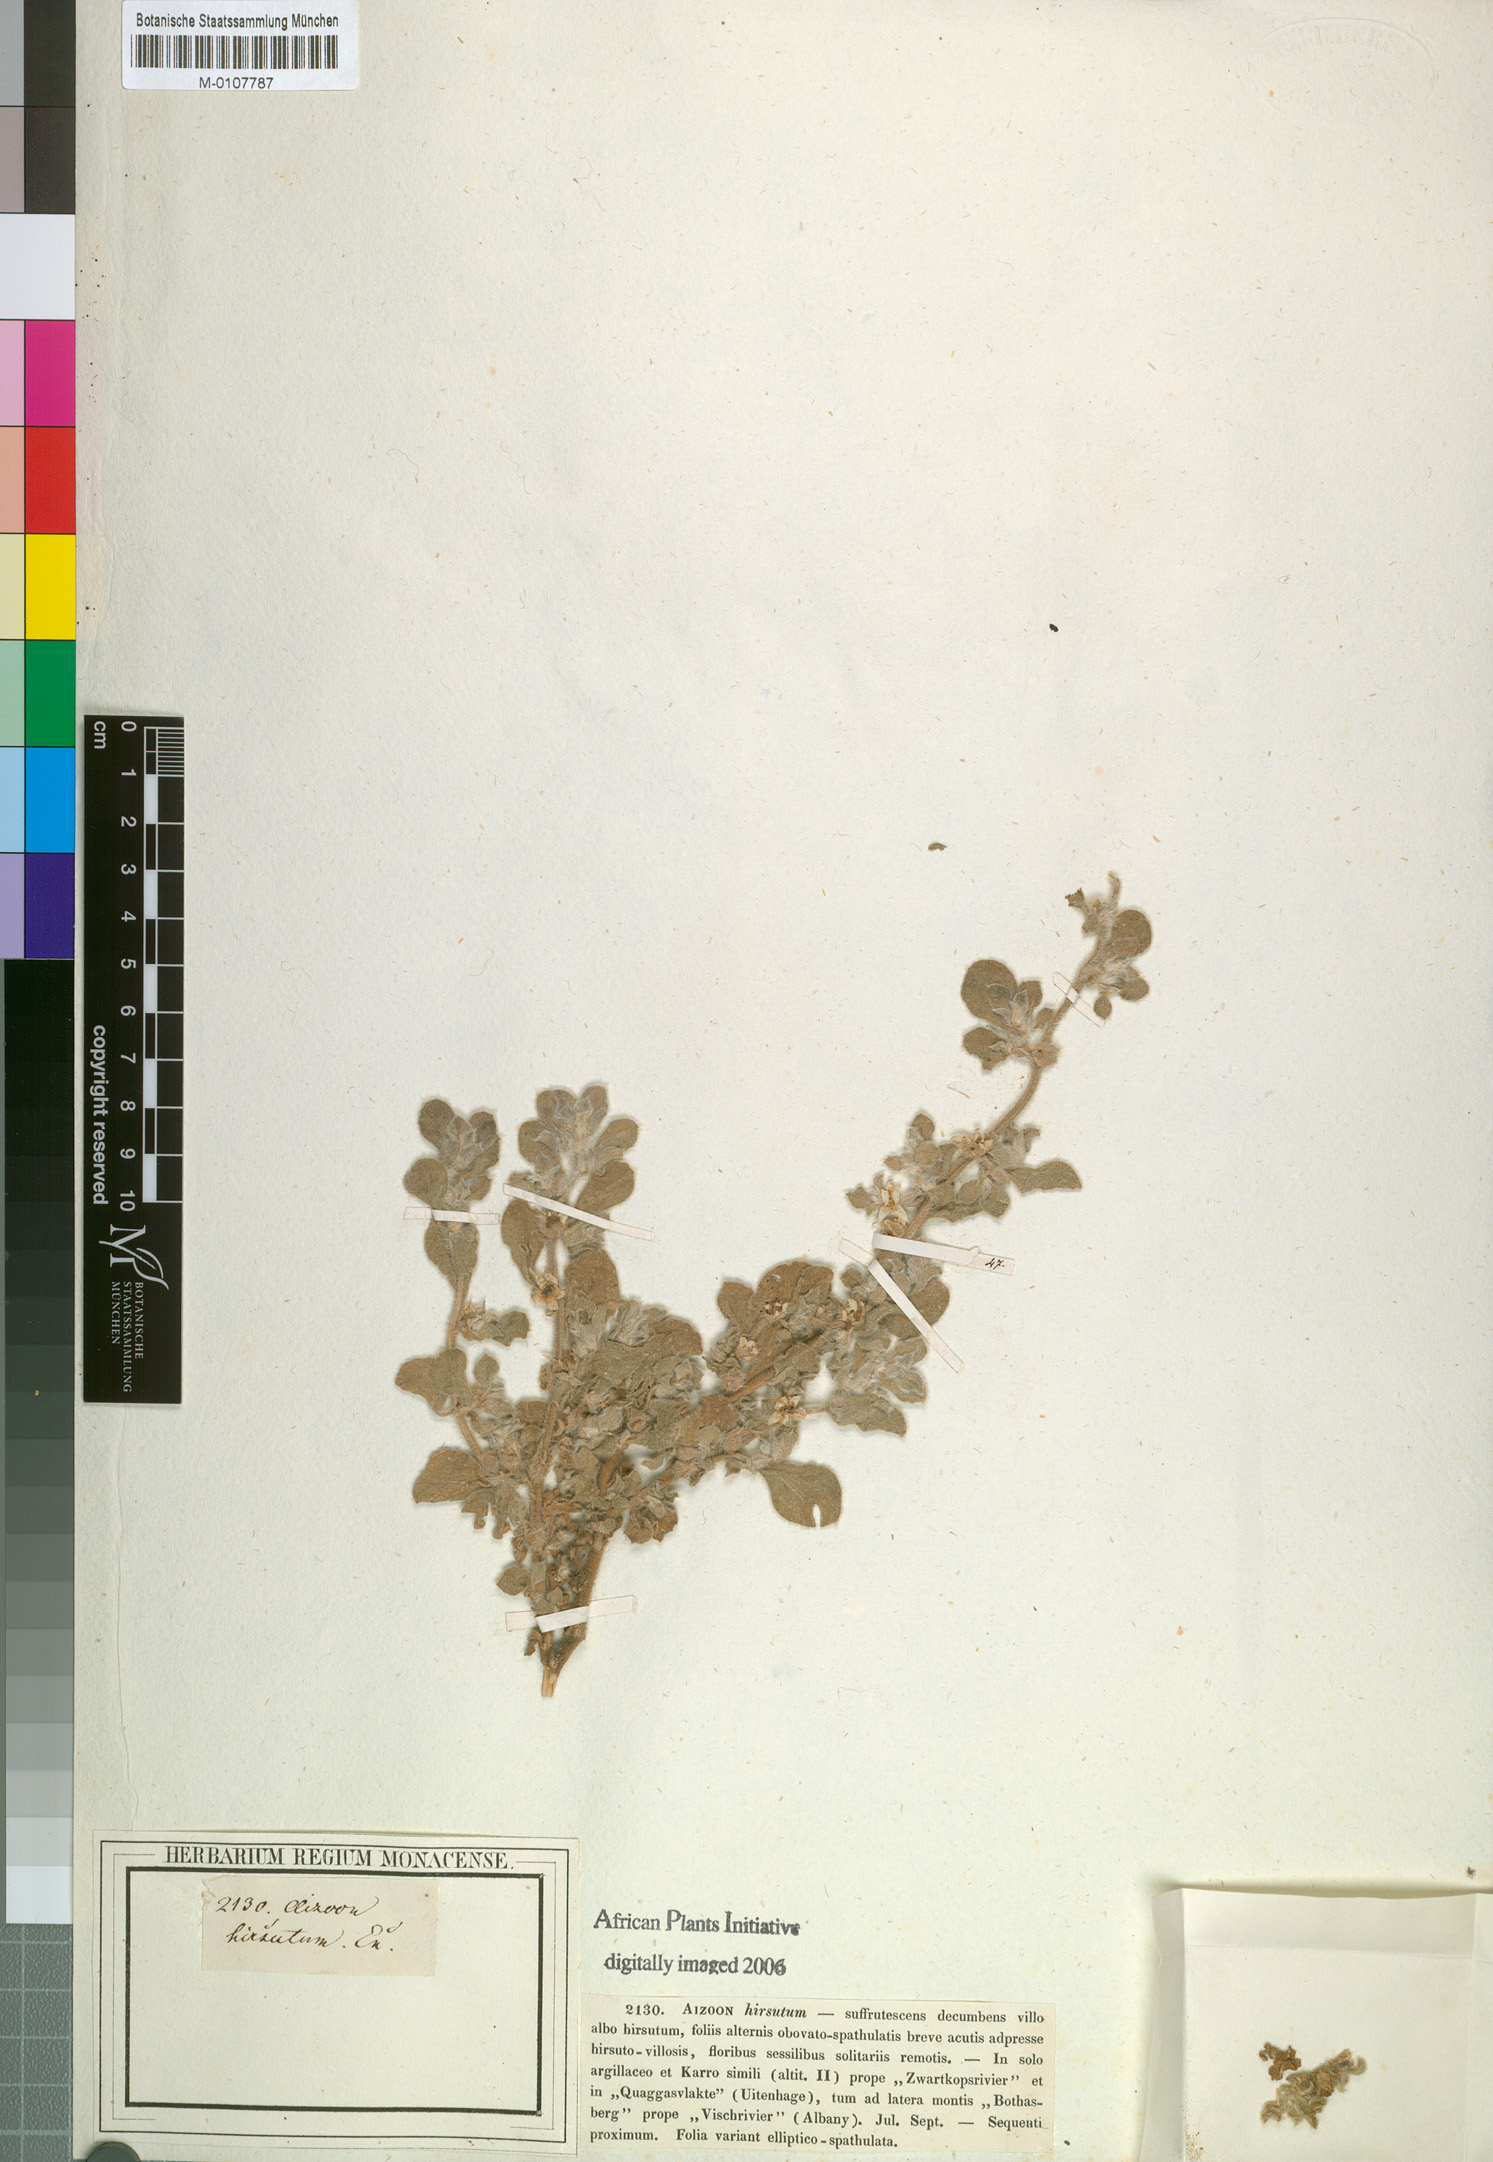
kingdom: Plantae
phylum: Tracheophyta
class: Magnoliopsida
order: Caryophyllales
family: Aizoaceae
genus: Aizoon
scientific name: Aizoon glinoides
